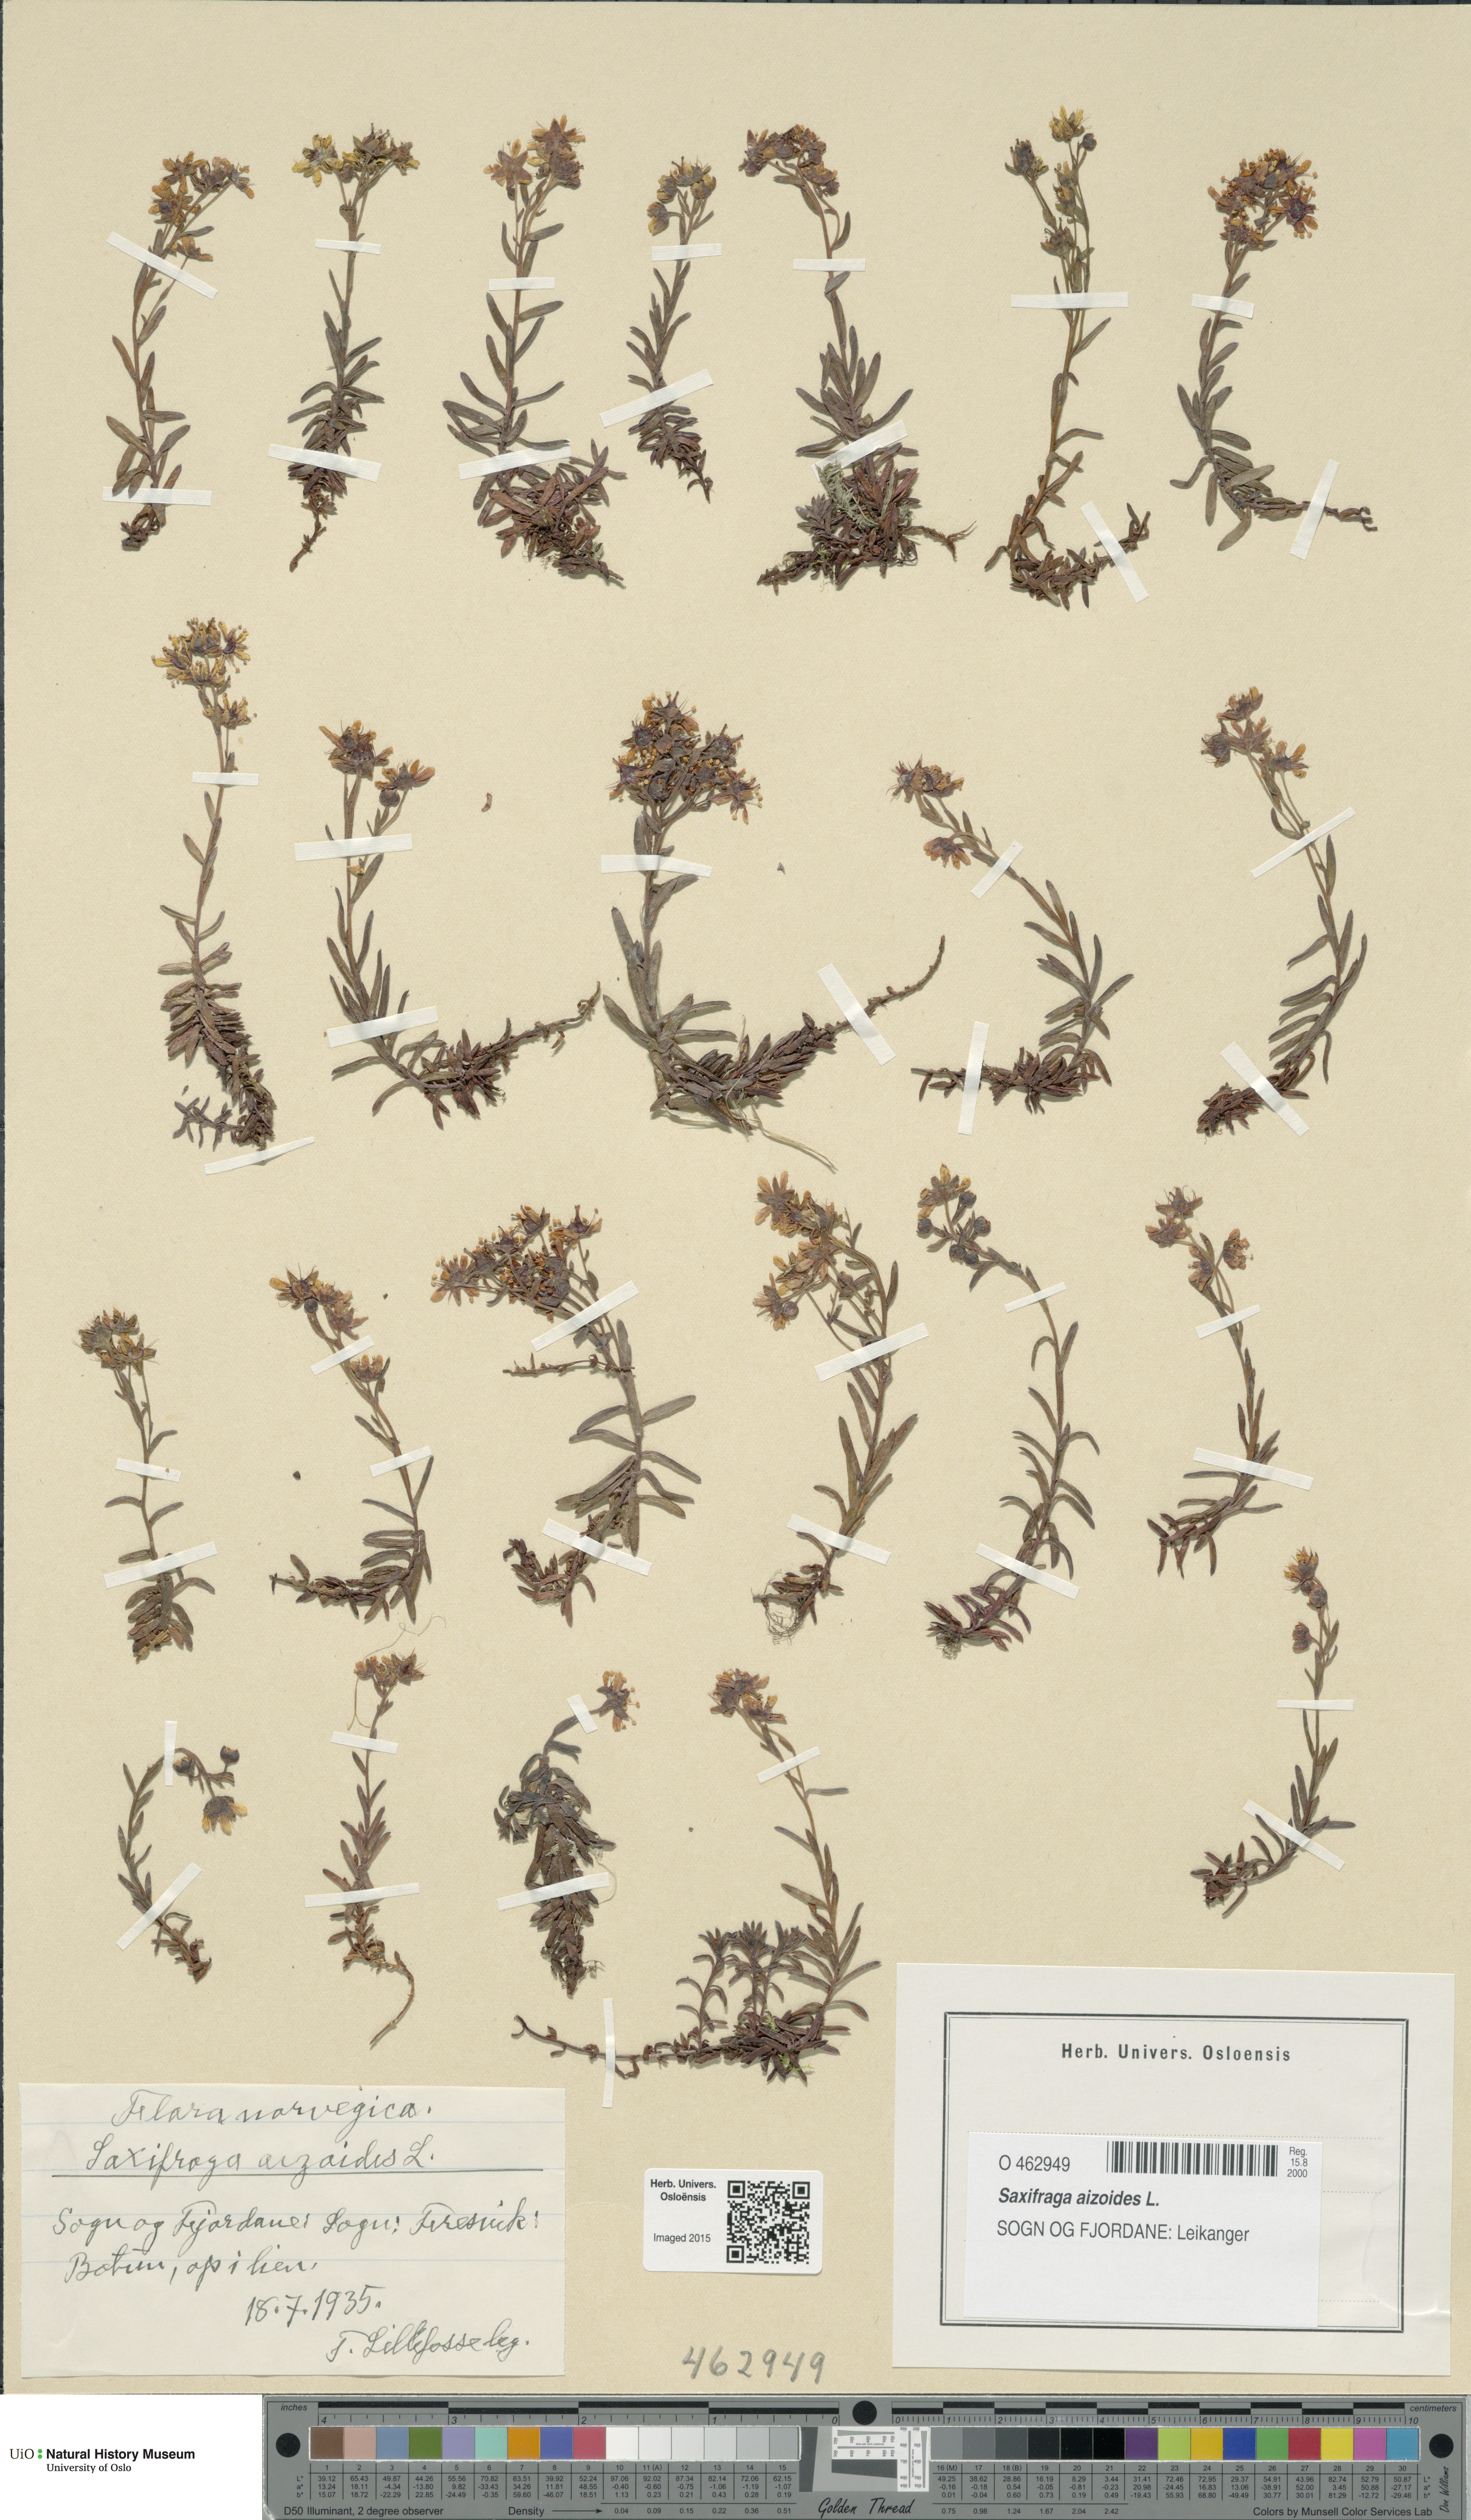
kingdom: Plantae
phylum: Tracheophyta
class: Magnoliopsida
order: Saxifragales
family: Saxifragaceae
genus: Saxifraga
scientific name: Saxifraga aizoides
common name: Yellow mountain saxifrage
